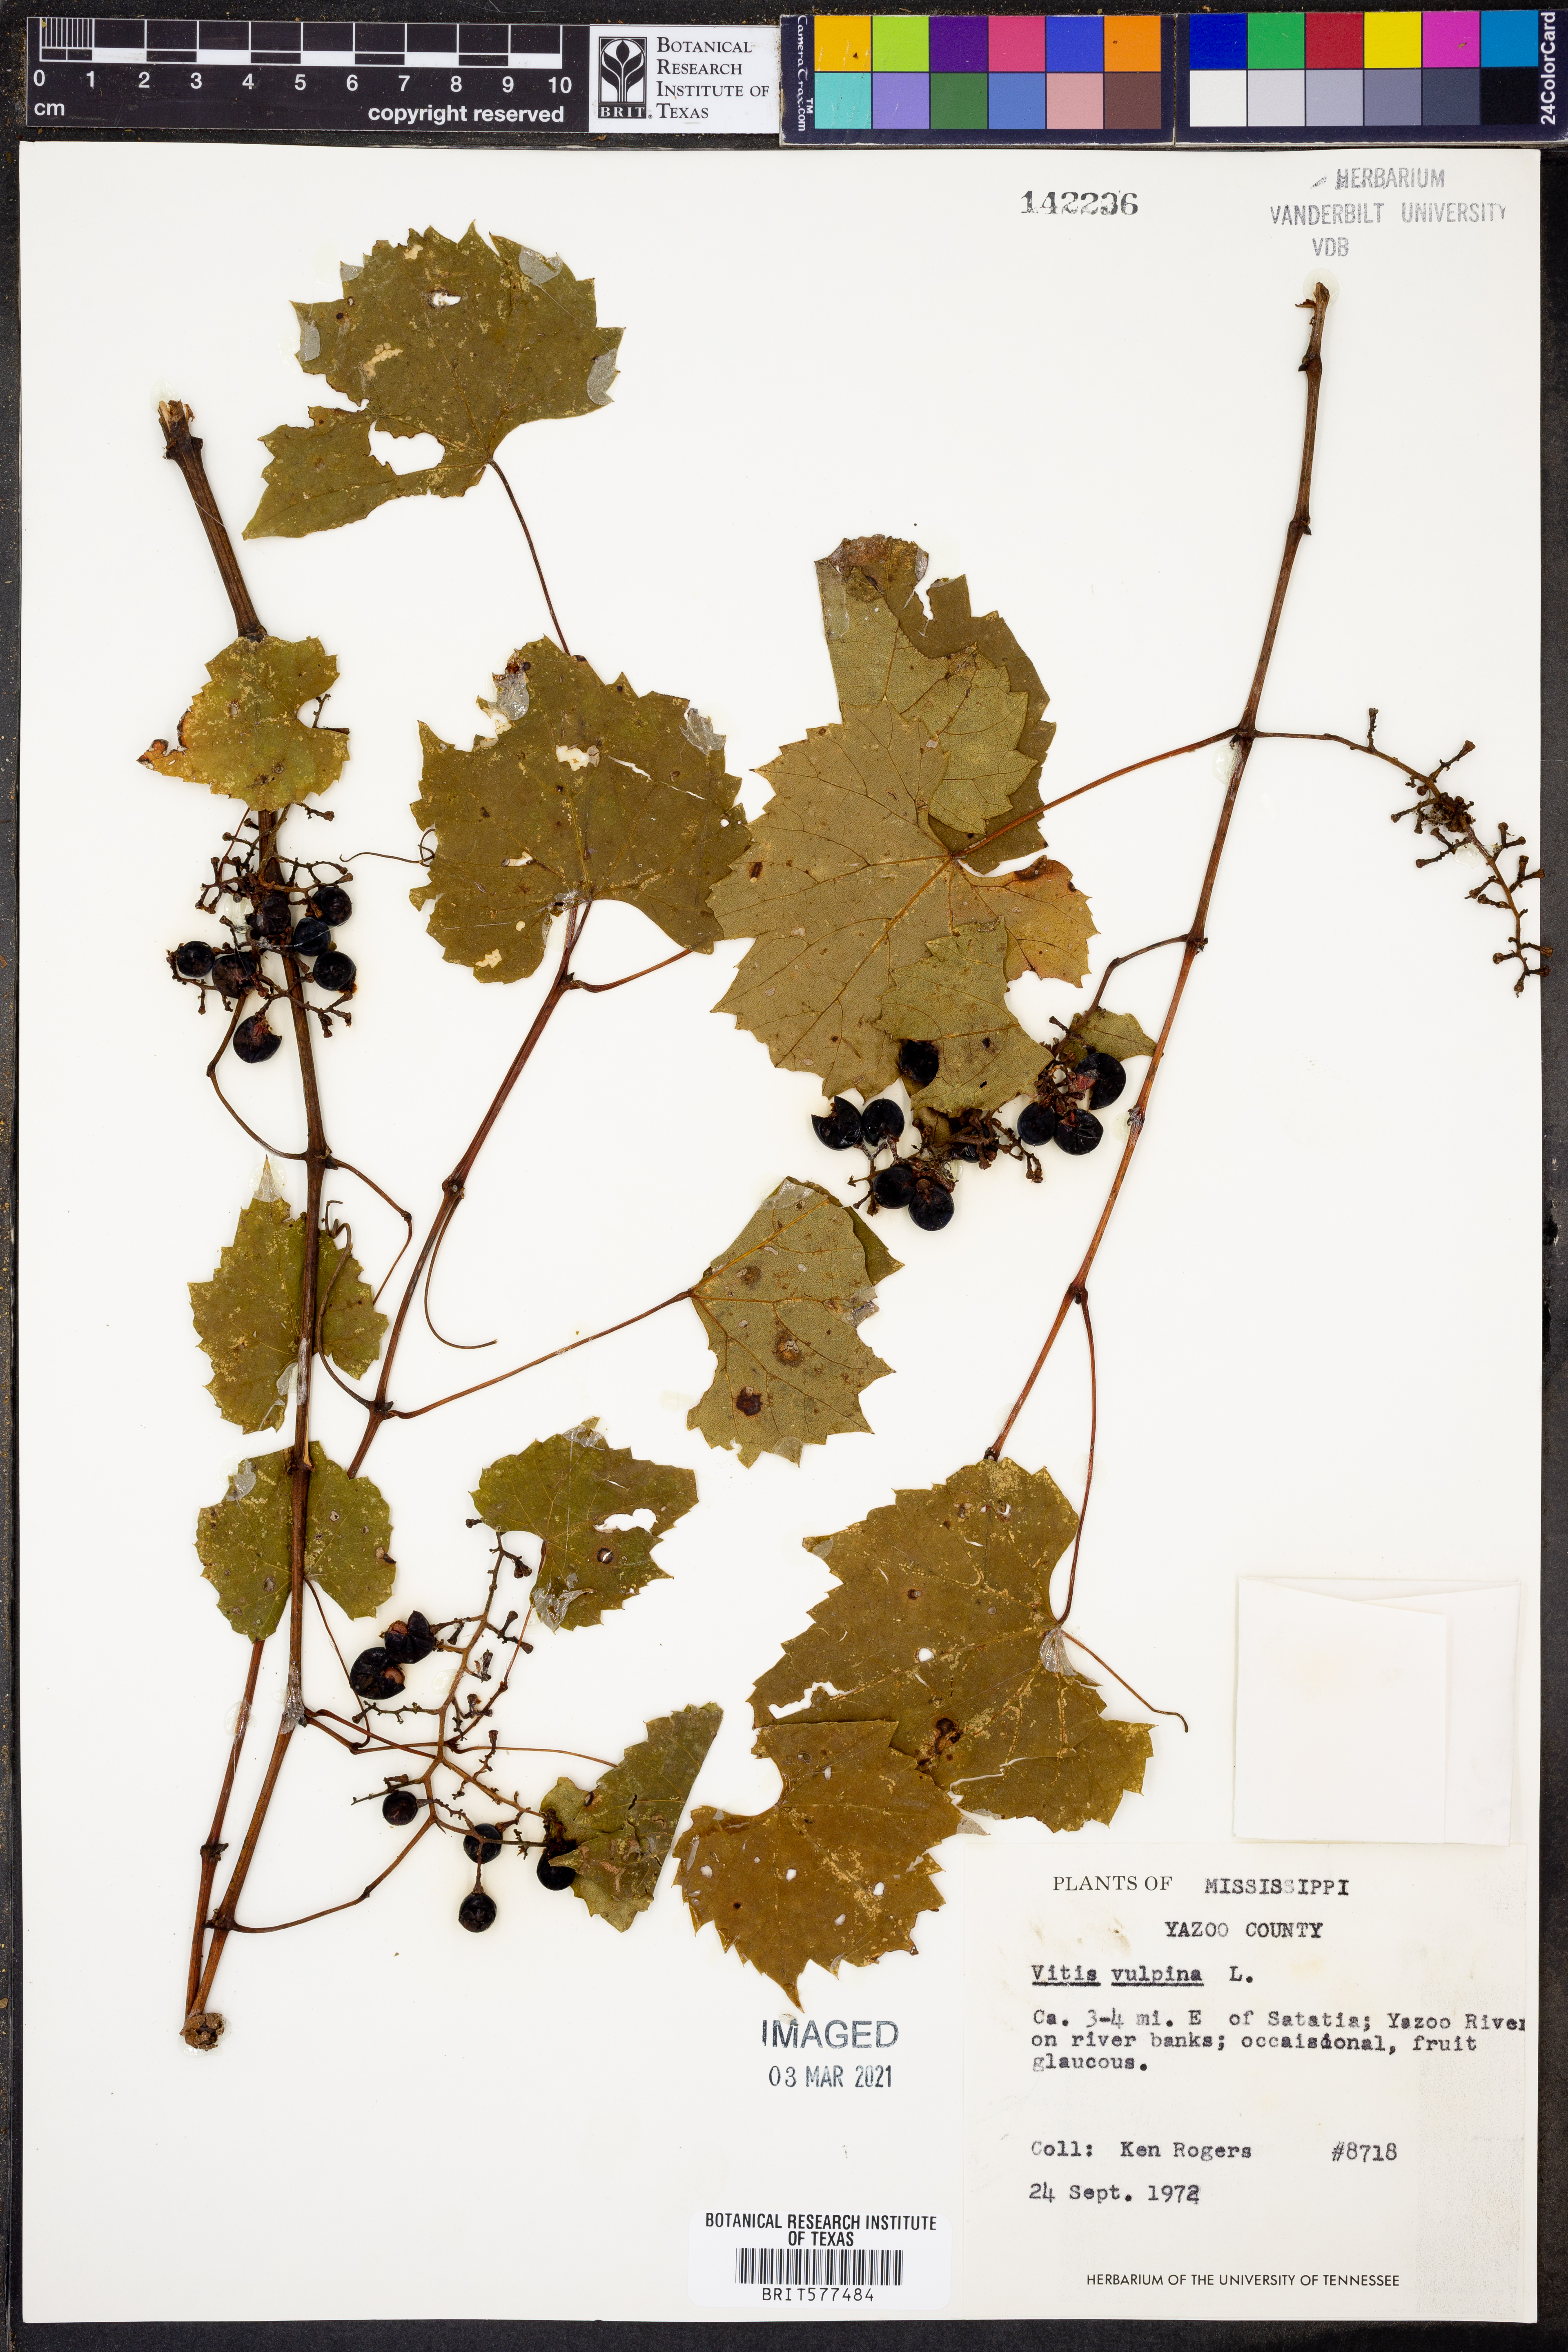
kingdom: Plantae
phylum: Tracheophyta
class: Magnoliopsida
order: Vitales
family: Vitaceae
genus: Vitis
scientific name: Vitis vulpina
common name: Frost grape
